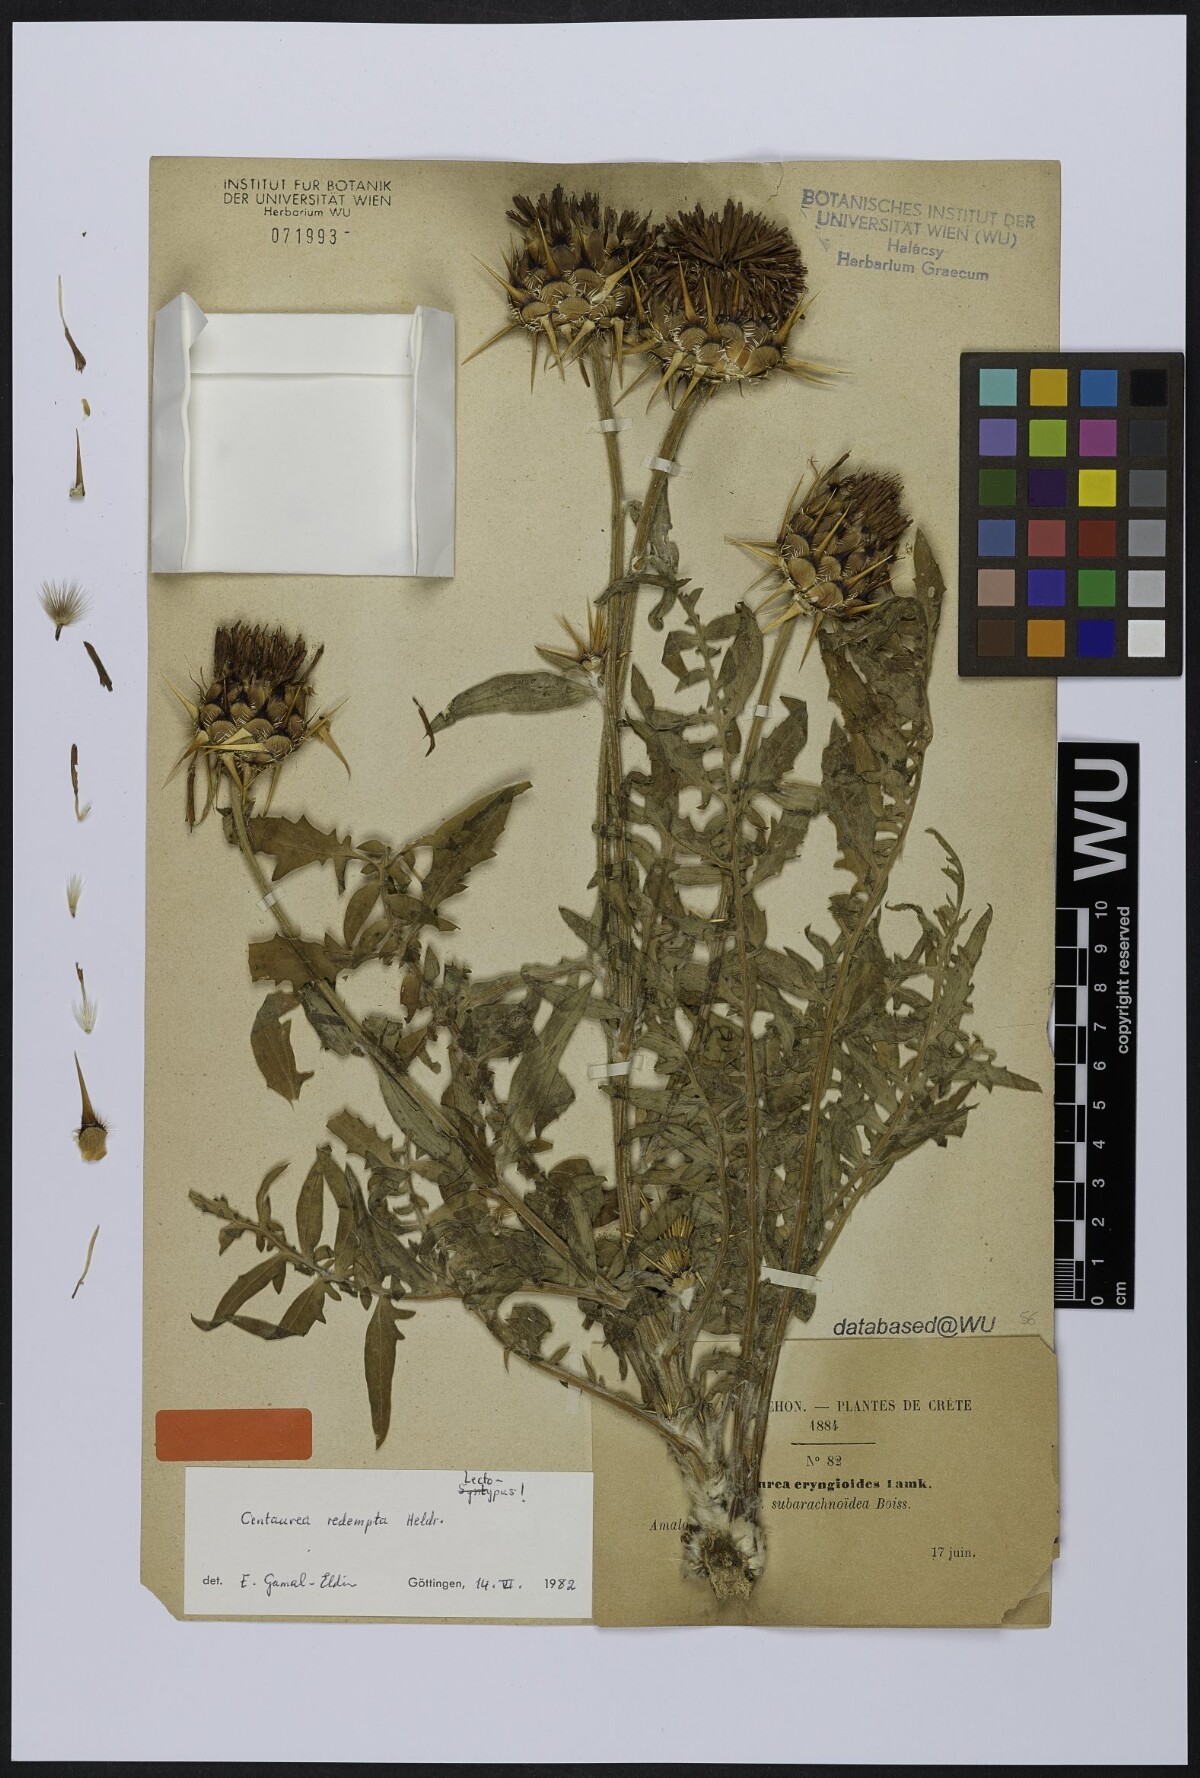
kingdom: Plantae
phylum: Tracheophyta
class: Magnoliopsida
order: Asterales
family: Asteraceae
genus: Centaurea
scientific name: Centaurea redempta
